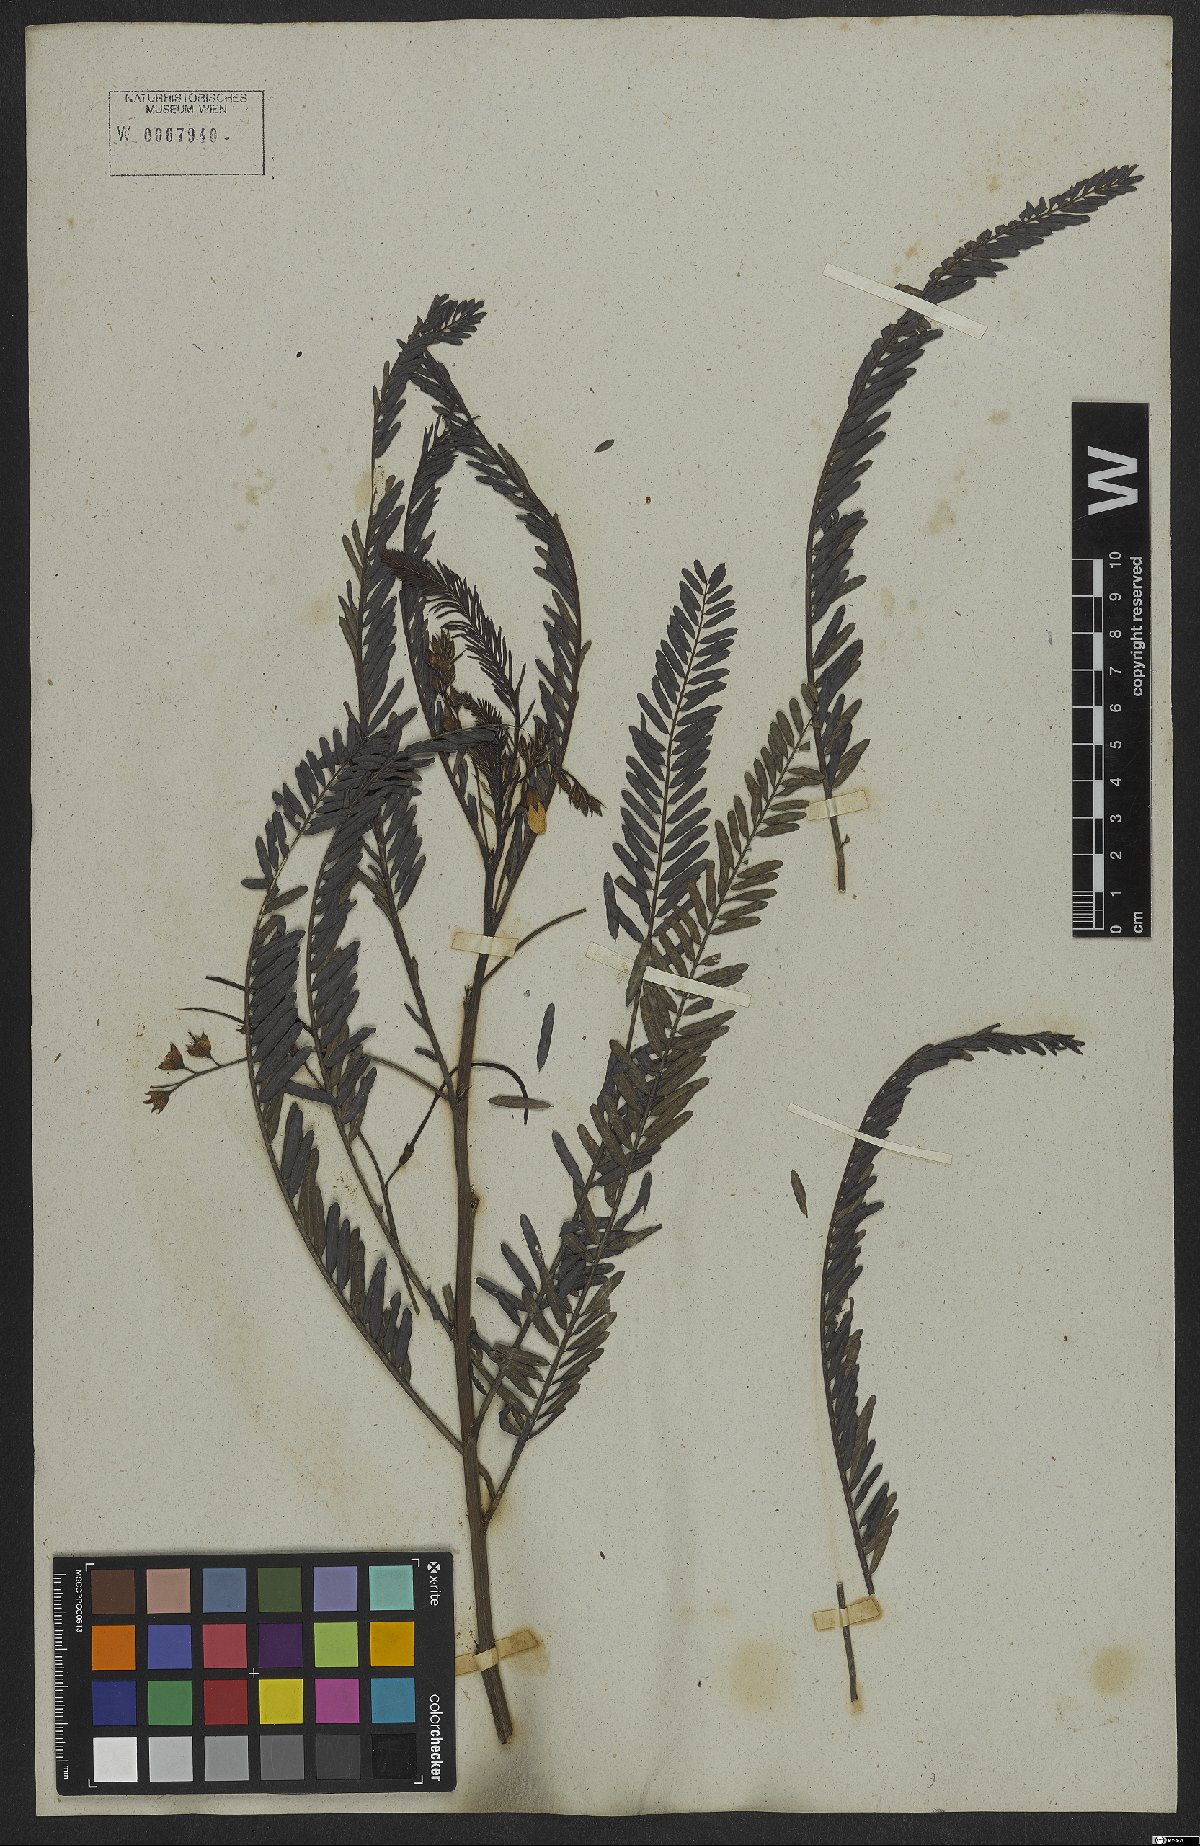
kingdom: Plantae
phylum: Tracheophyta
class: Magnoliopsida
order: Fabales
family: Fabaceae
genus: Sesbania
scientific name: Sesbania exasperata
